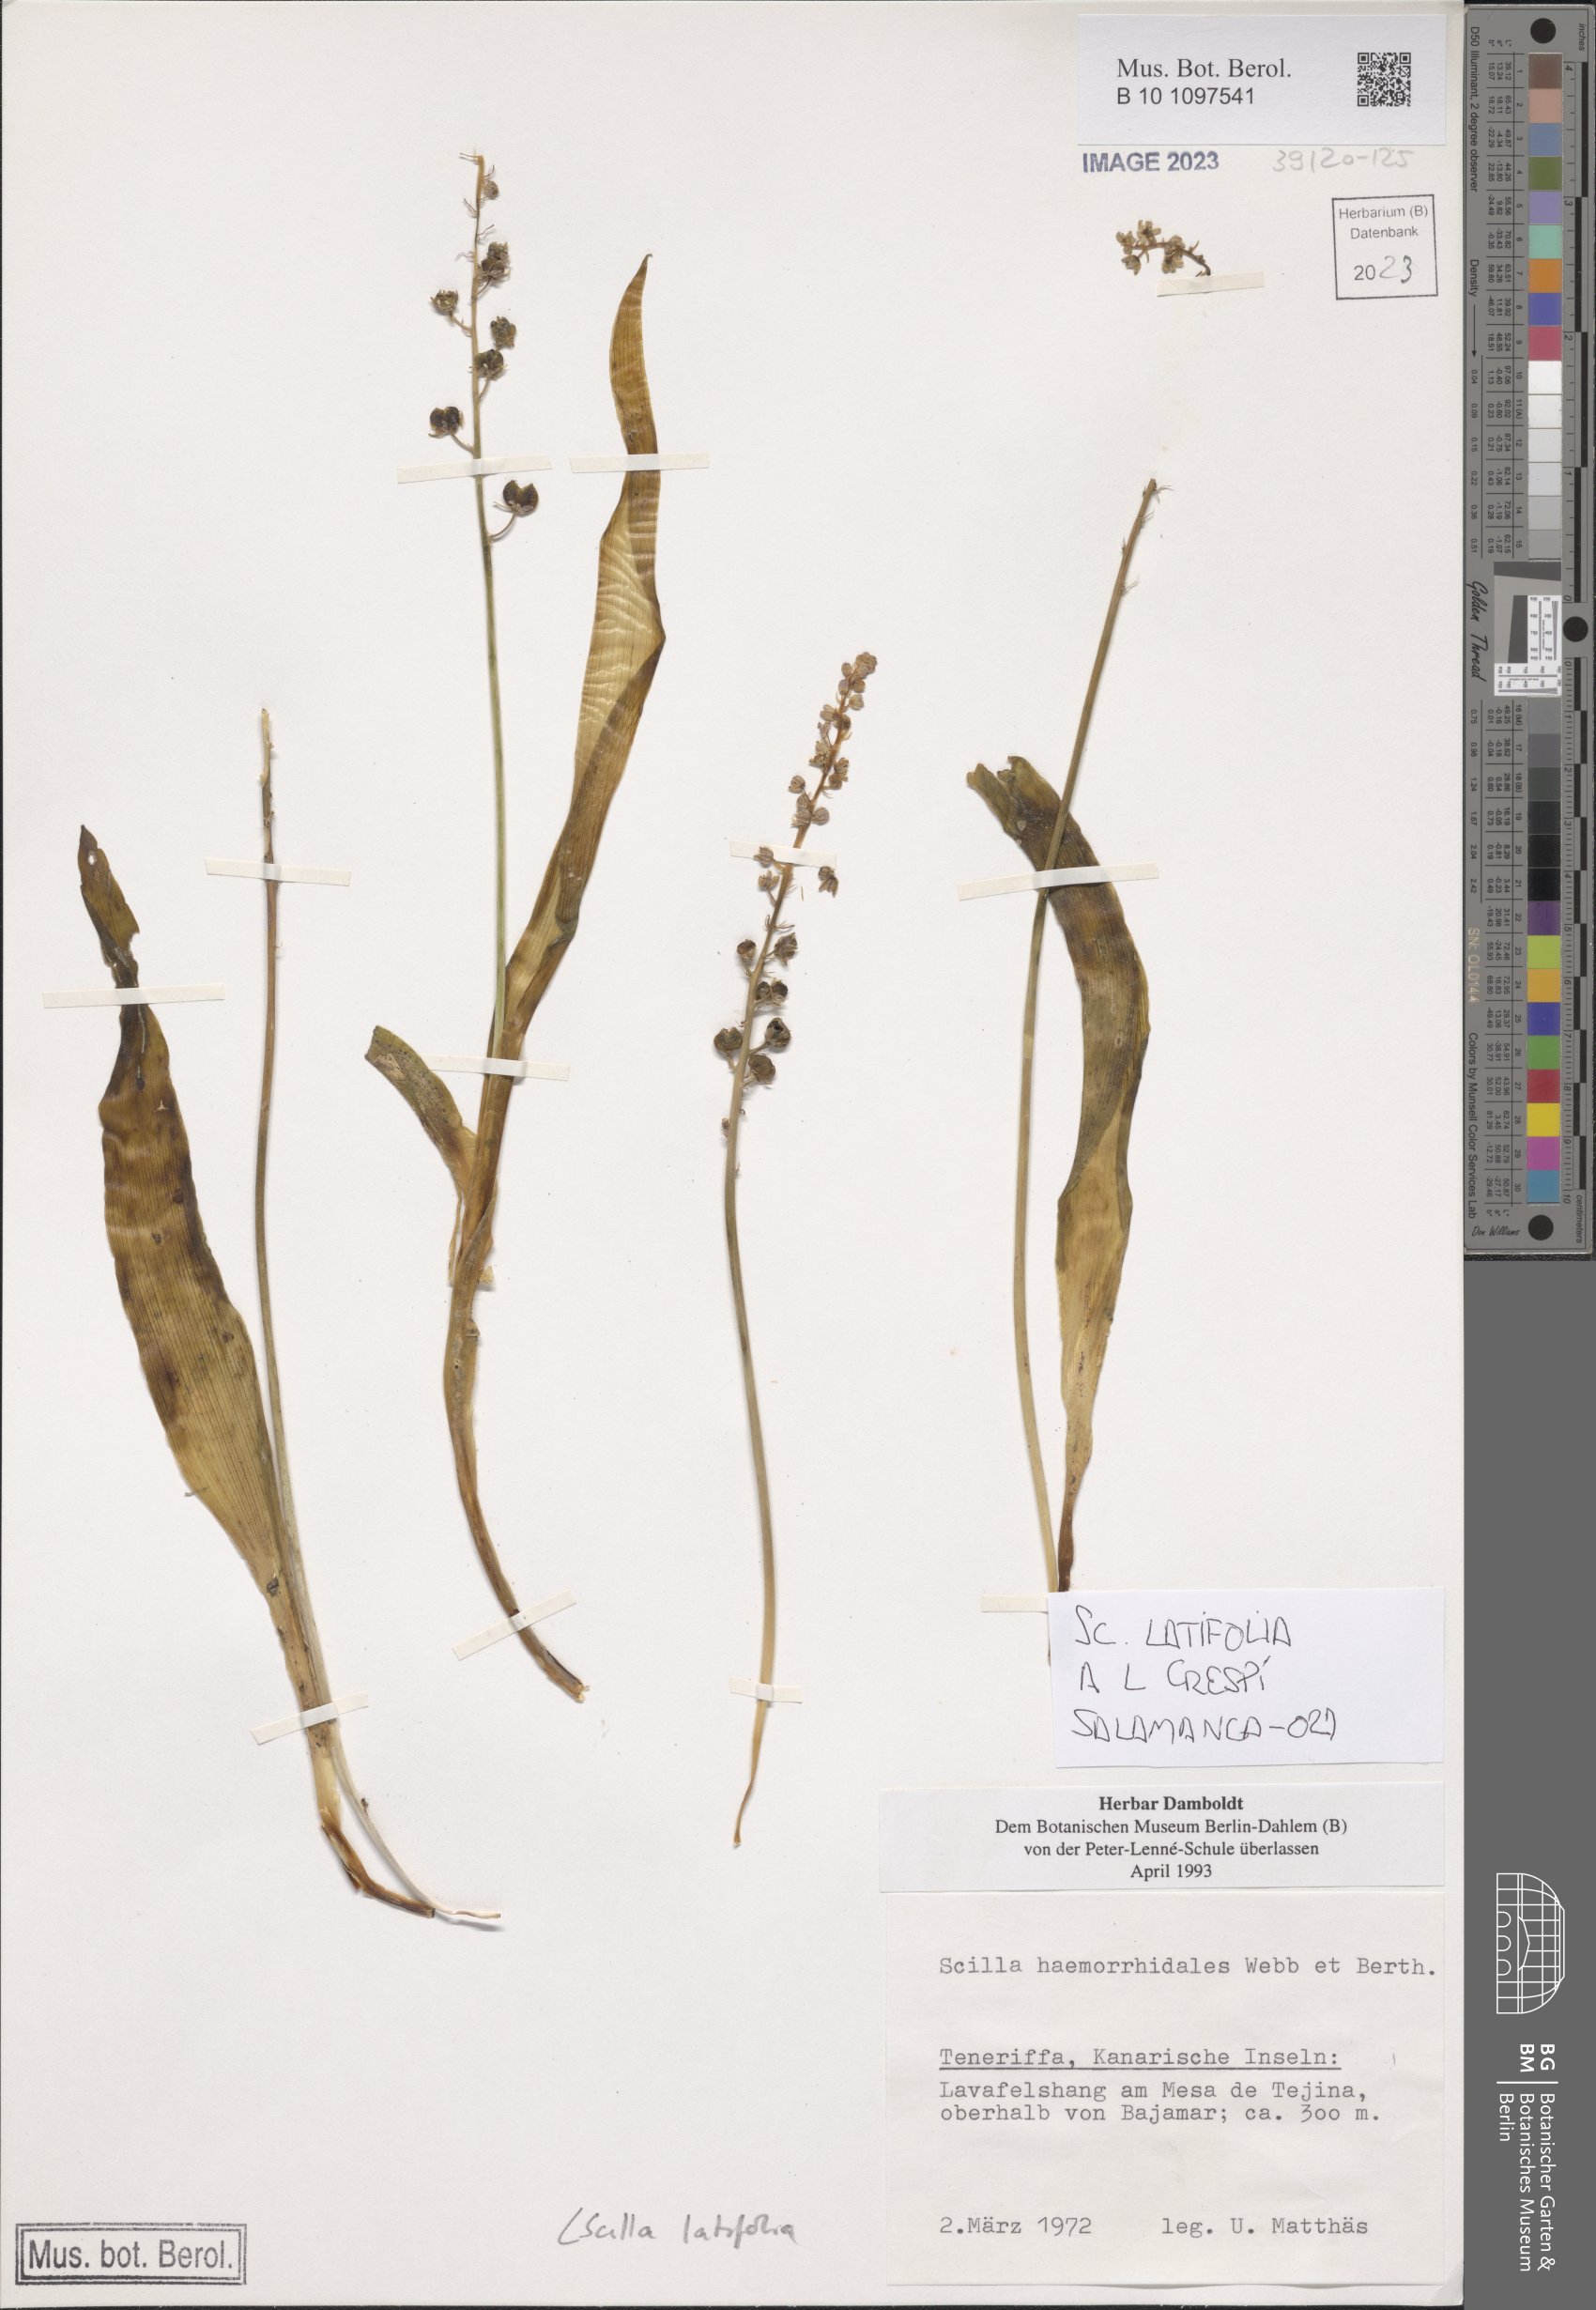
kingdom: Plantae
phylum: Tracheophyta
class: Liliopsida
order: Asparagales
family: Asparagaceae
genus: Scilla
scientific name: Scilla latifolia
